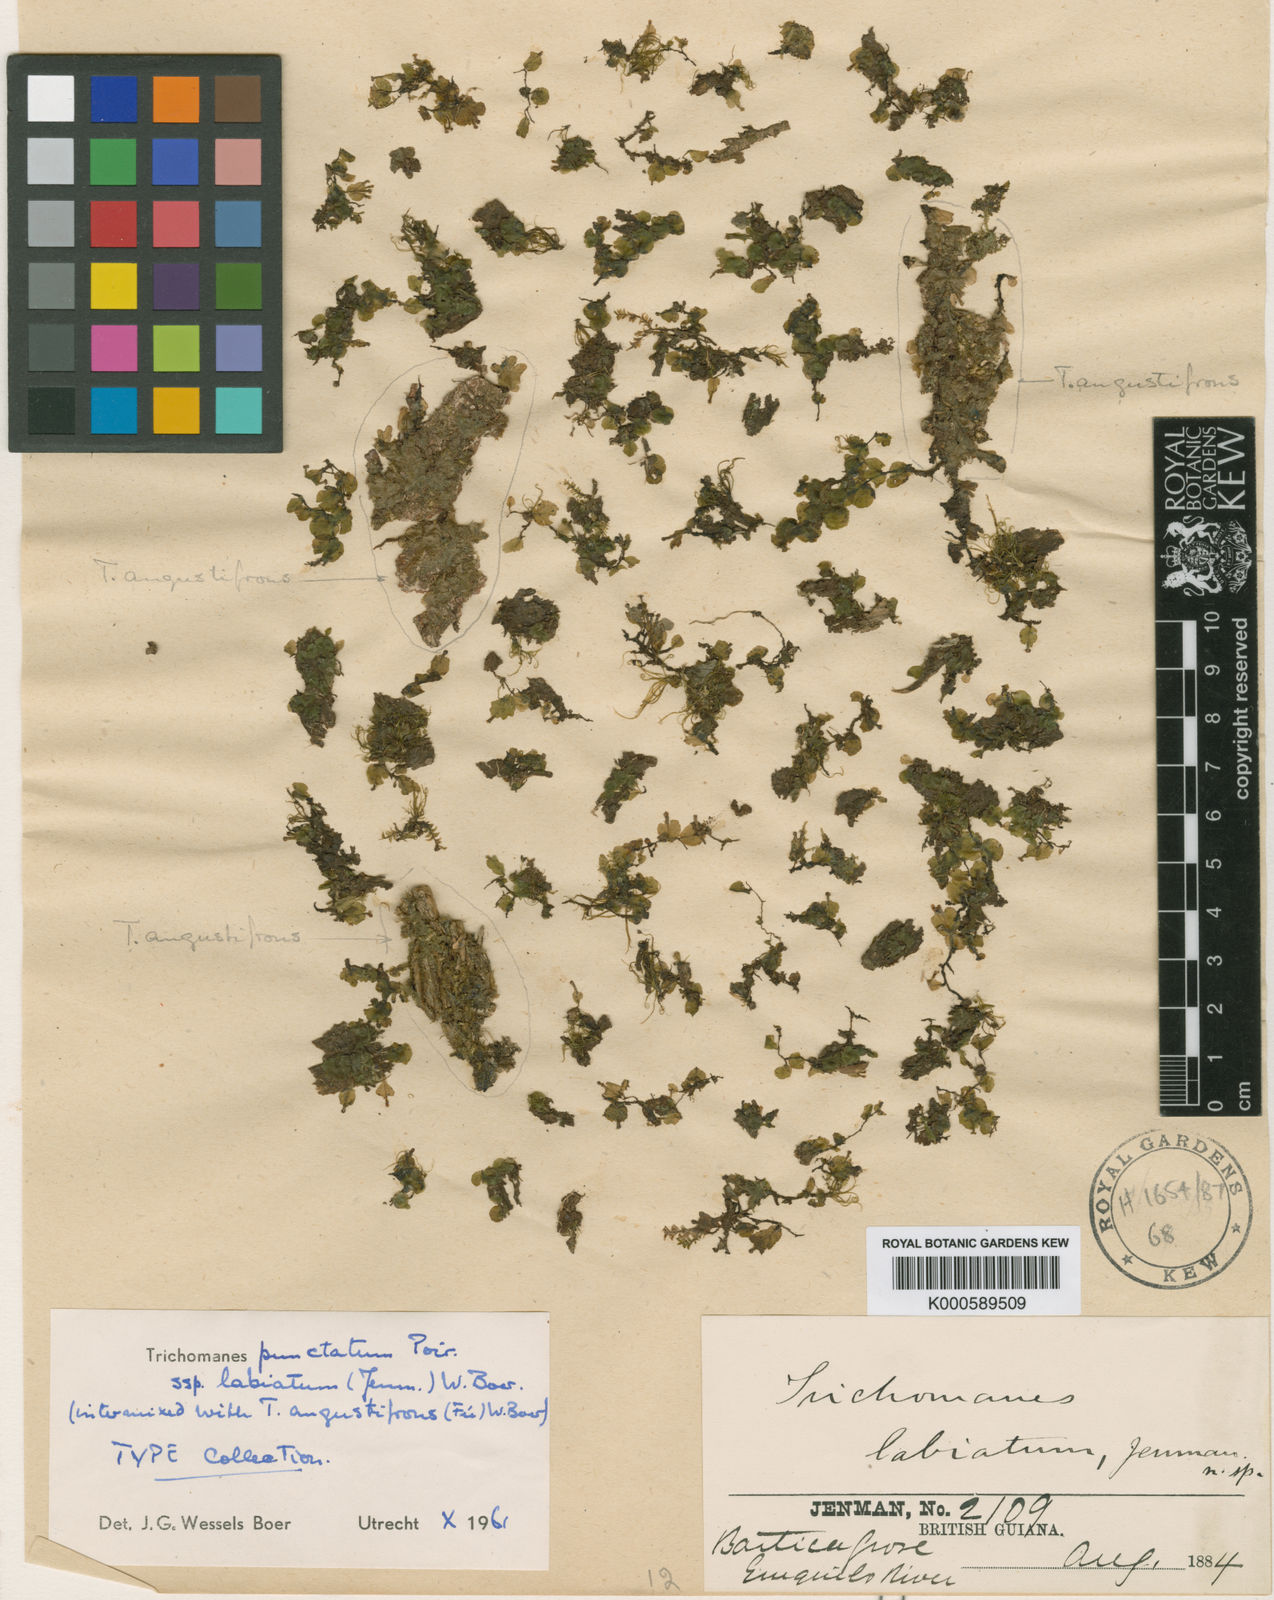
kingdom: Plantae
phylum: Tracheophyta
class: Polypodiopsida
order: Hymenophyllales
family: Hymenophyllaceae
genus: Didymoglossum
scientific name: Didymoglossum punctatum
